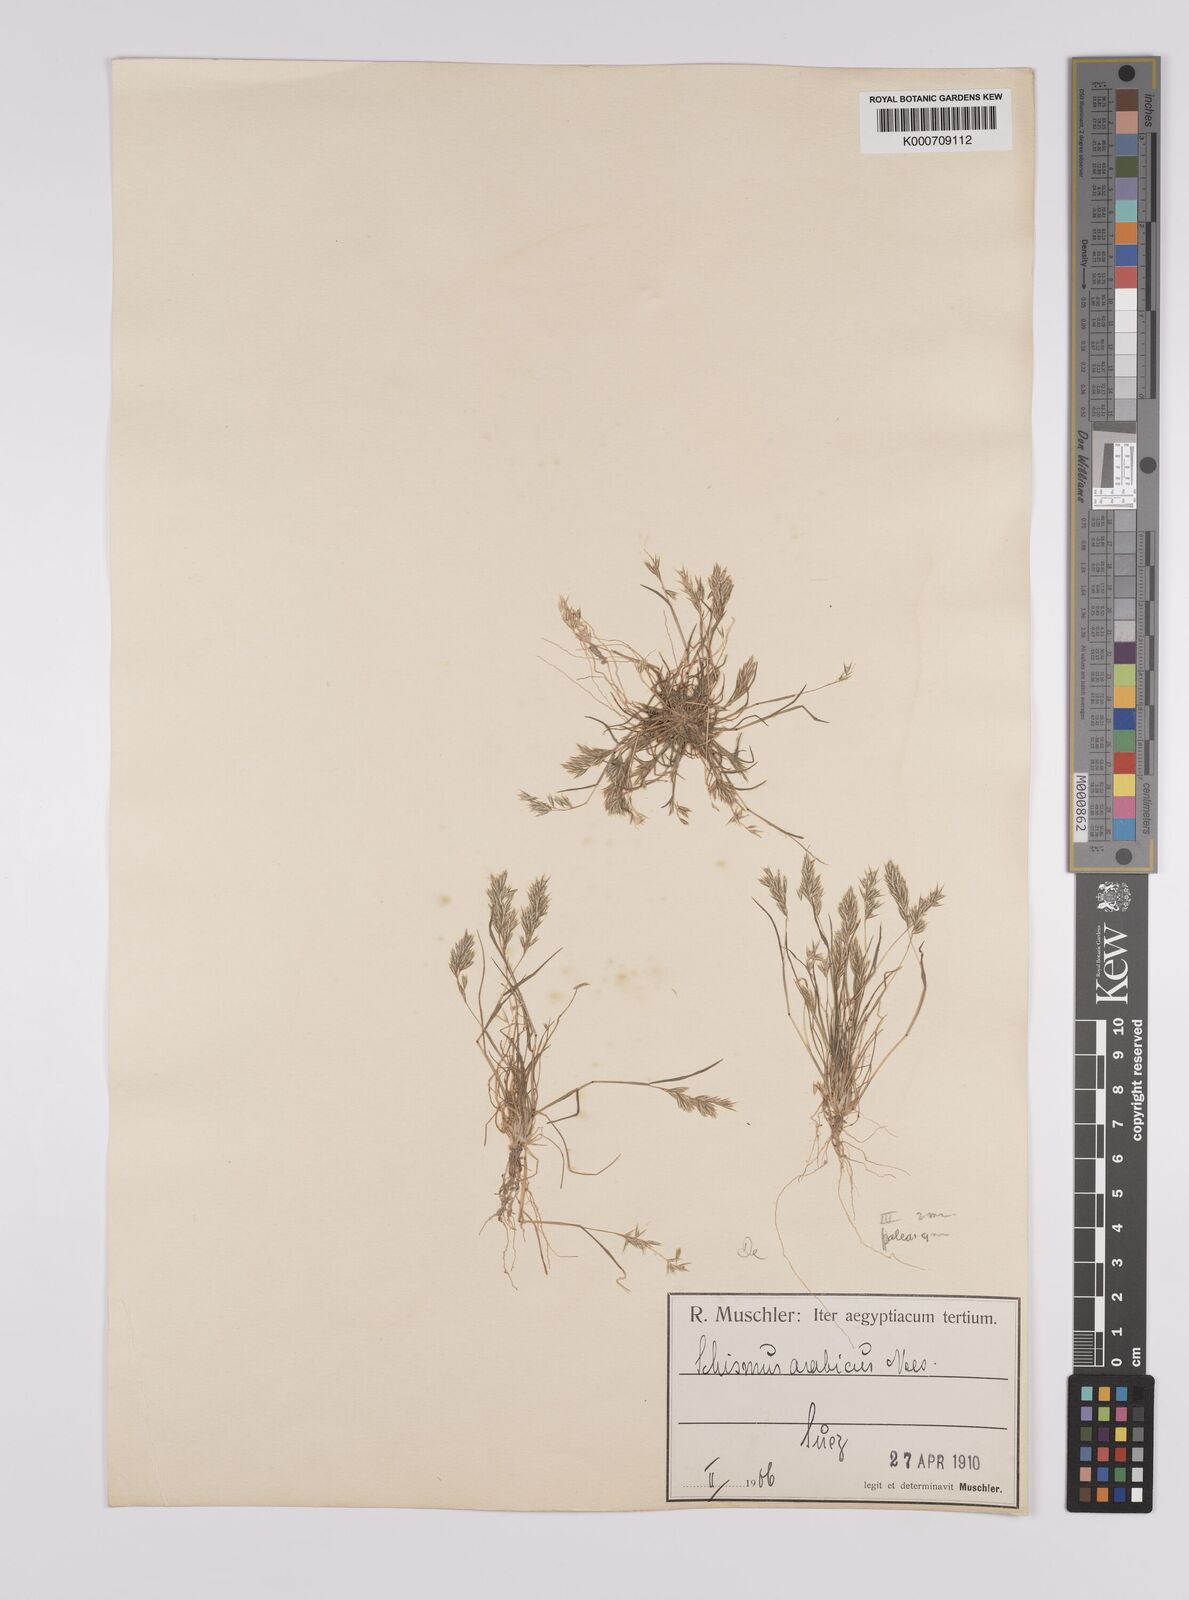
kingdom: Plantae
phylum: Tracheophyta
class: Liliopsida
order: Poales
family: Poaceae
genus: Schismus
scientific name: Schismus arabicus
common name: Arabian schismus
